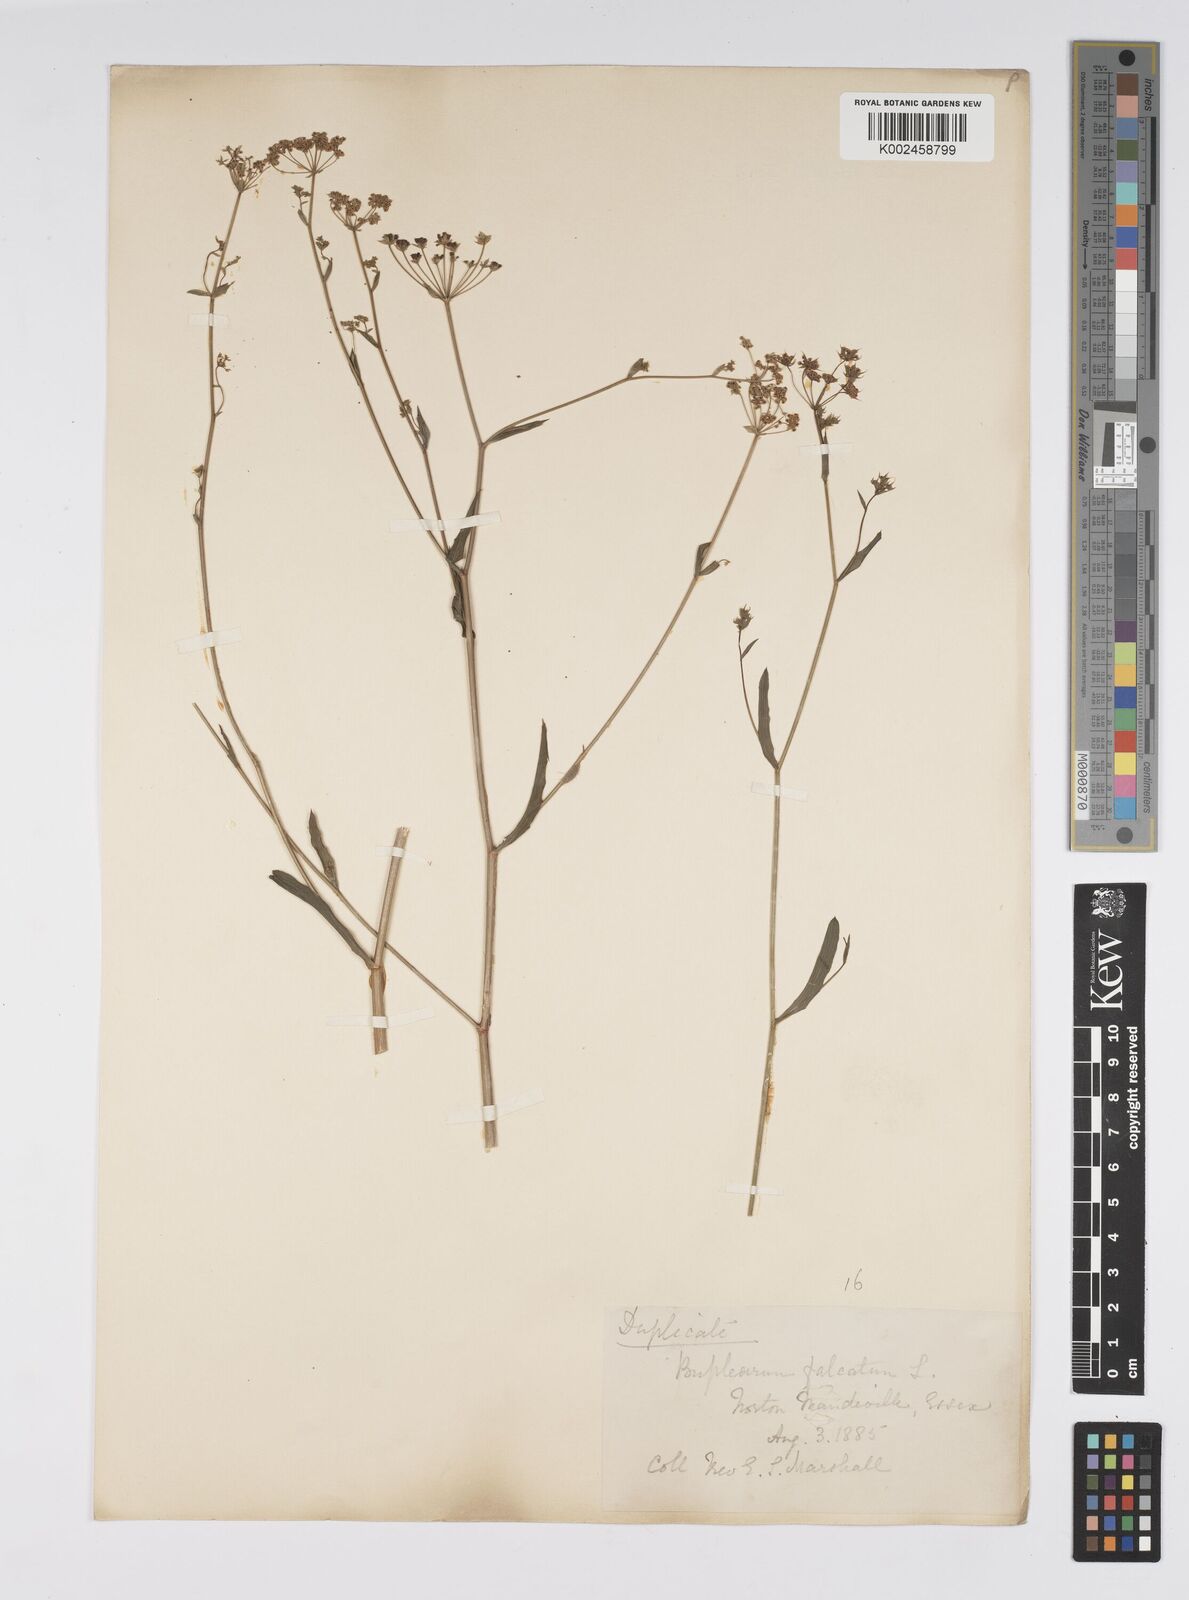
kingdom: Plantae
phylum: Tracheophyta
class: Magnoliopsida
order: Apiales
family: Apiaceae
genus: Bupleurum
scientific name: Bupleurum falcatum
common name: Sickle-leaved hare's-ear
